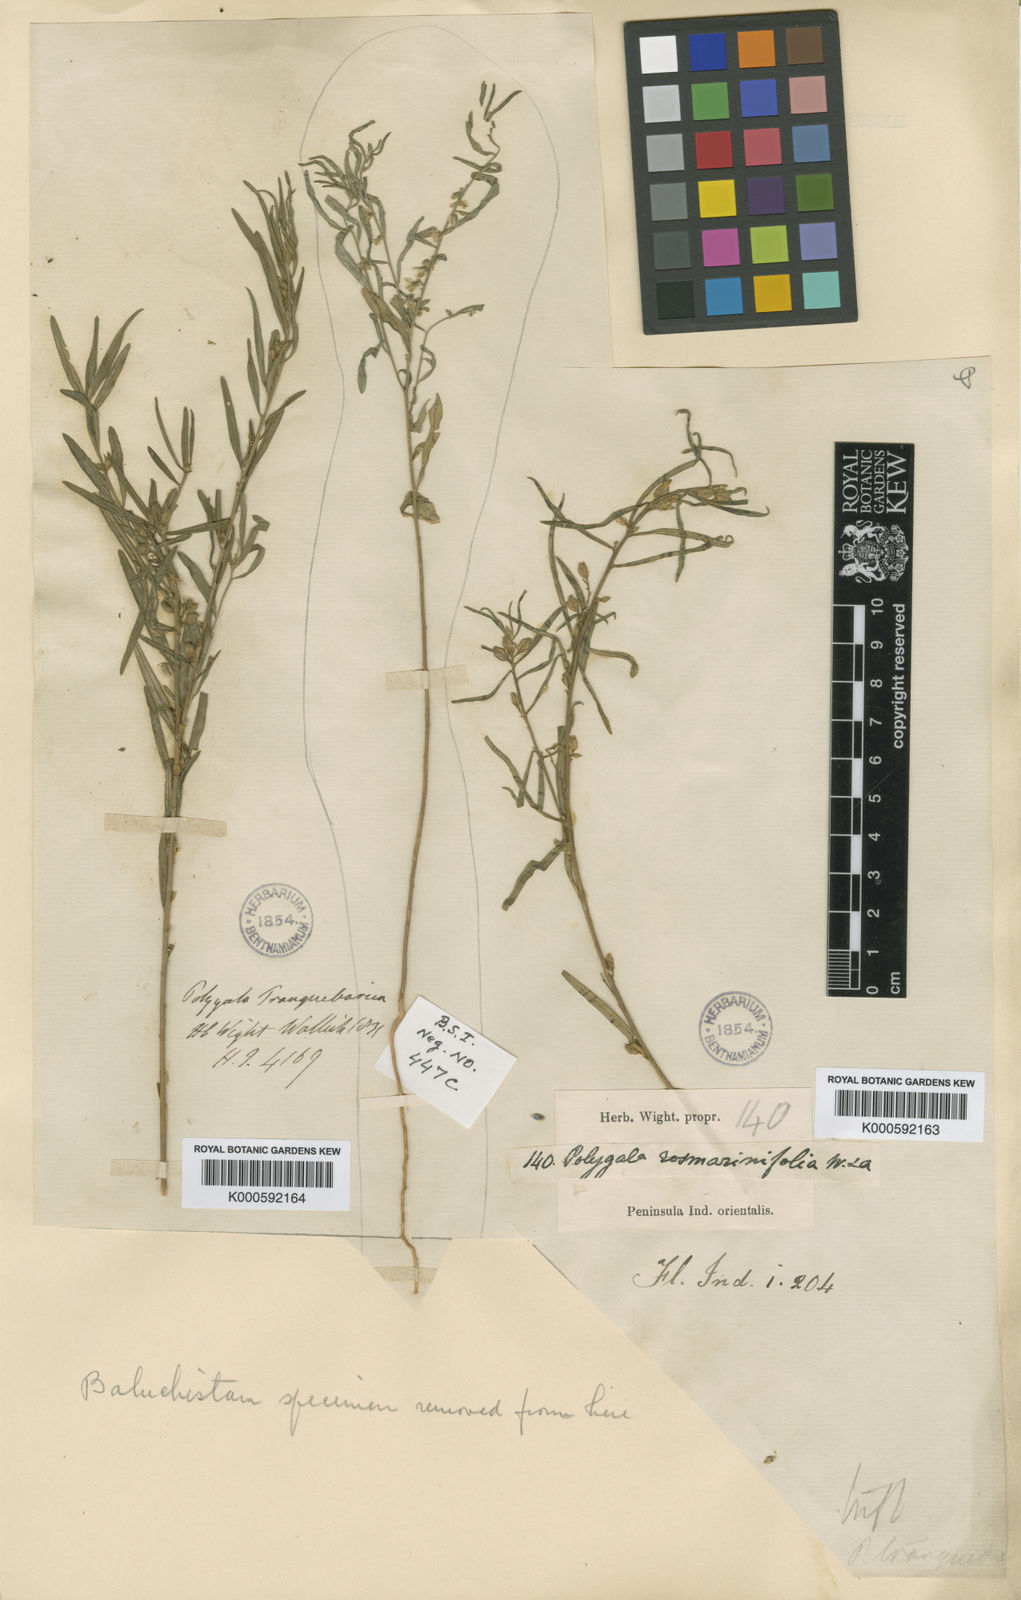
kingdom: Plantae
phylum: Tracheophyta
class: Magnoliopsida
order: Fabales
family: Polygalaceae
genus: Polygala
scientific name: Polygala rosmarinifolia
